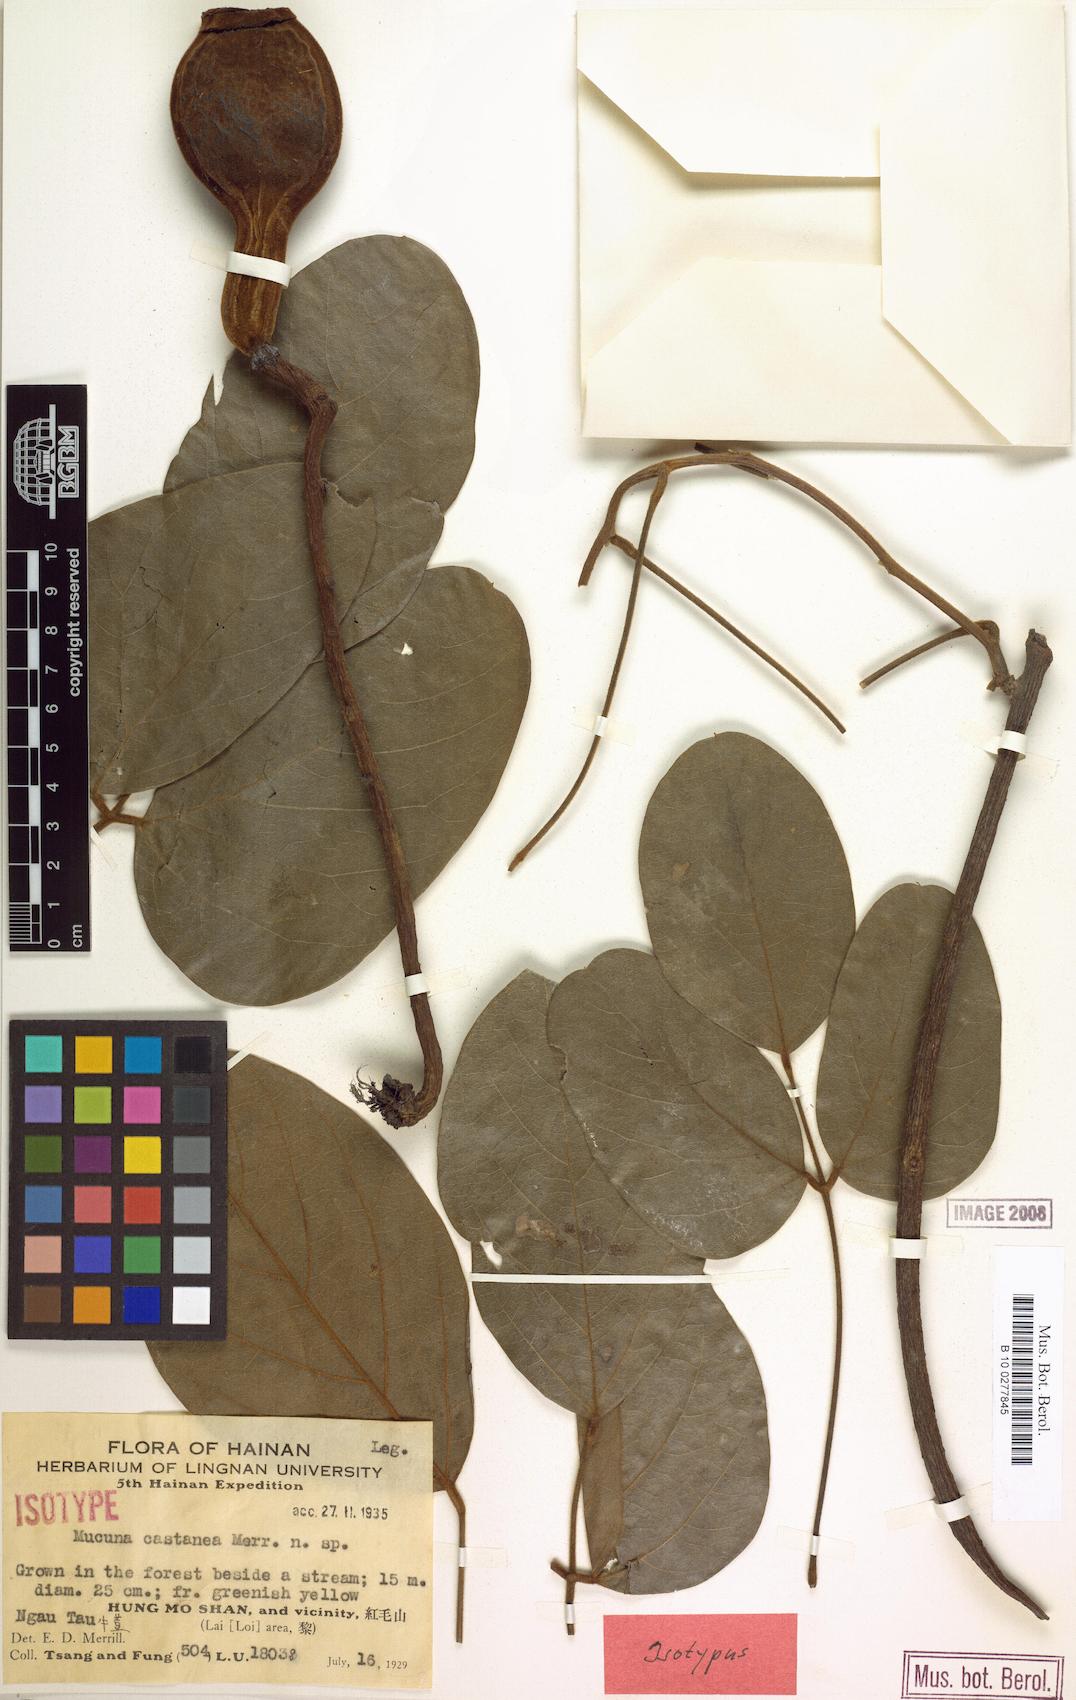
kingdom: Plantae
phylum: Tracheophyta
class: Magnoliopsida
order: Fabales
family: Fabaceae
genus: Mucuna
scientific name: Mucuna macrocarpa
